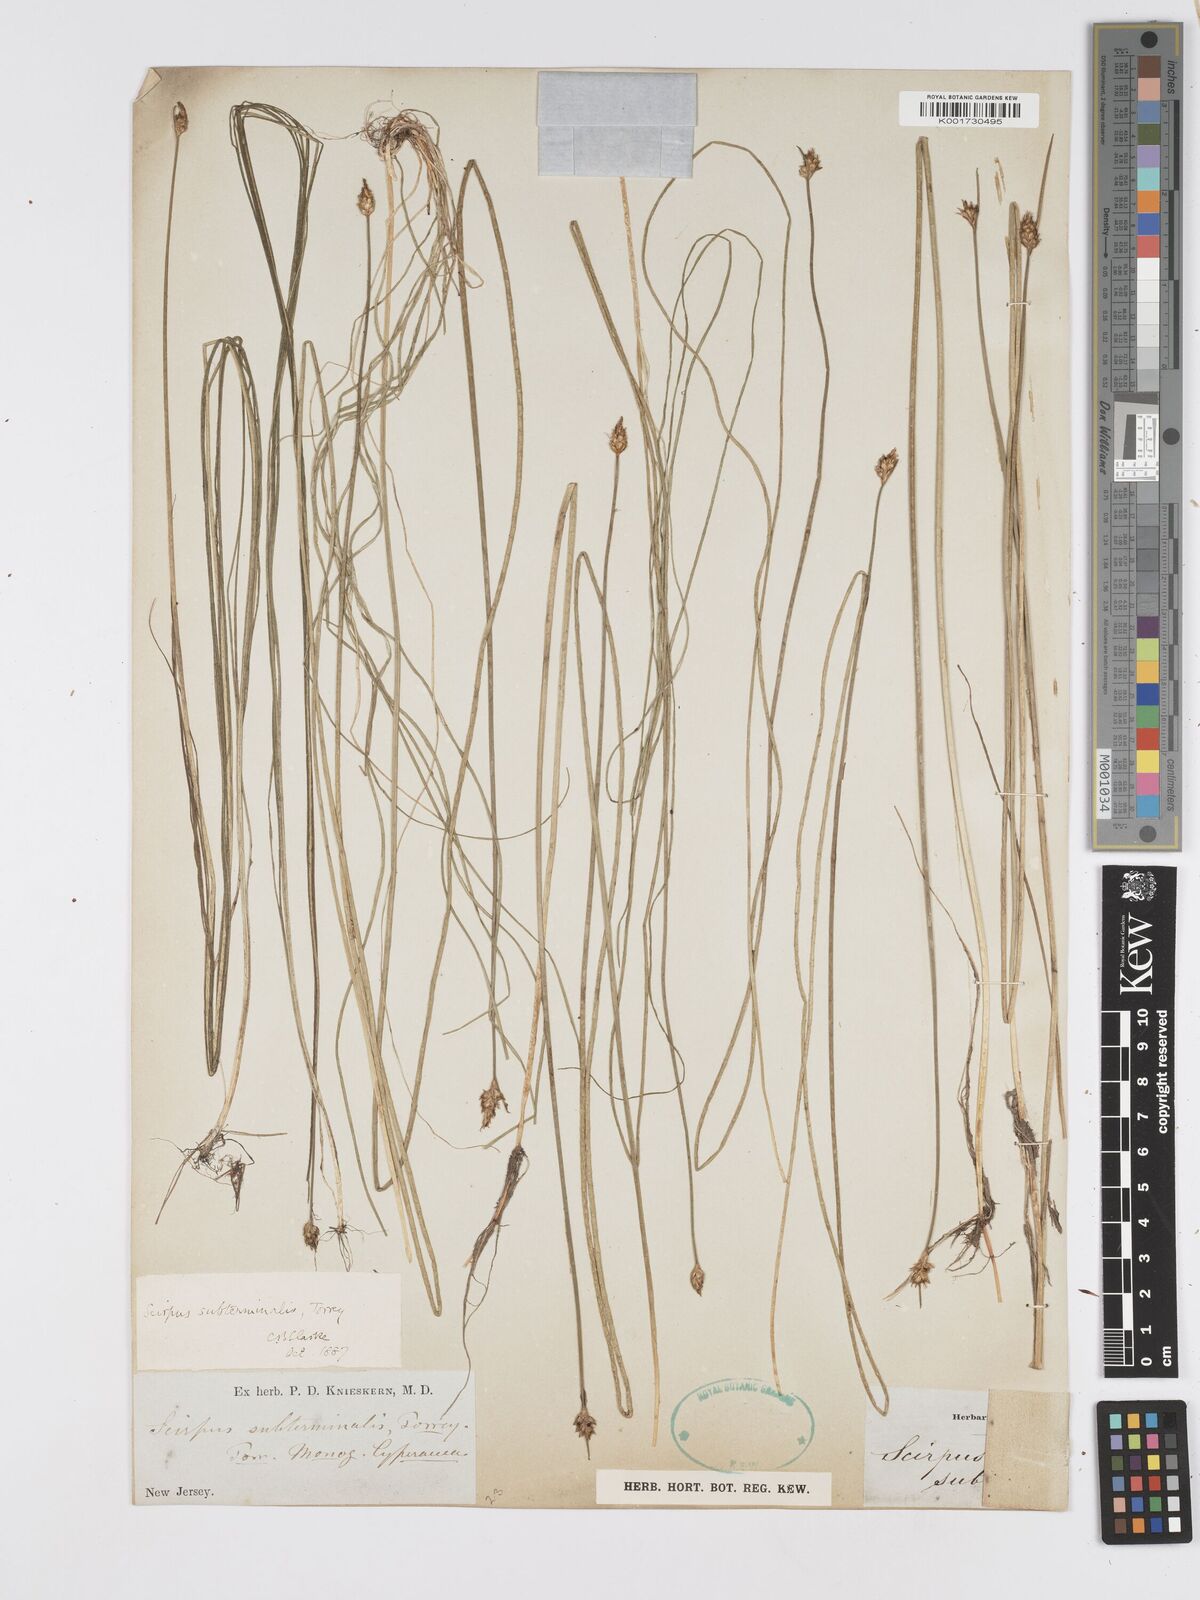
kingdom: Plantae
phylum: Tracheophyta
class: Liliopsida
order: Poales
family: Cyperaceae
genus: Schoenoplectus
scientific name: Schoenoplectus subterminalis
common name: Swaying bulrush
